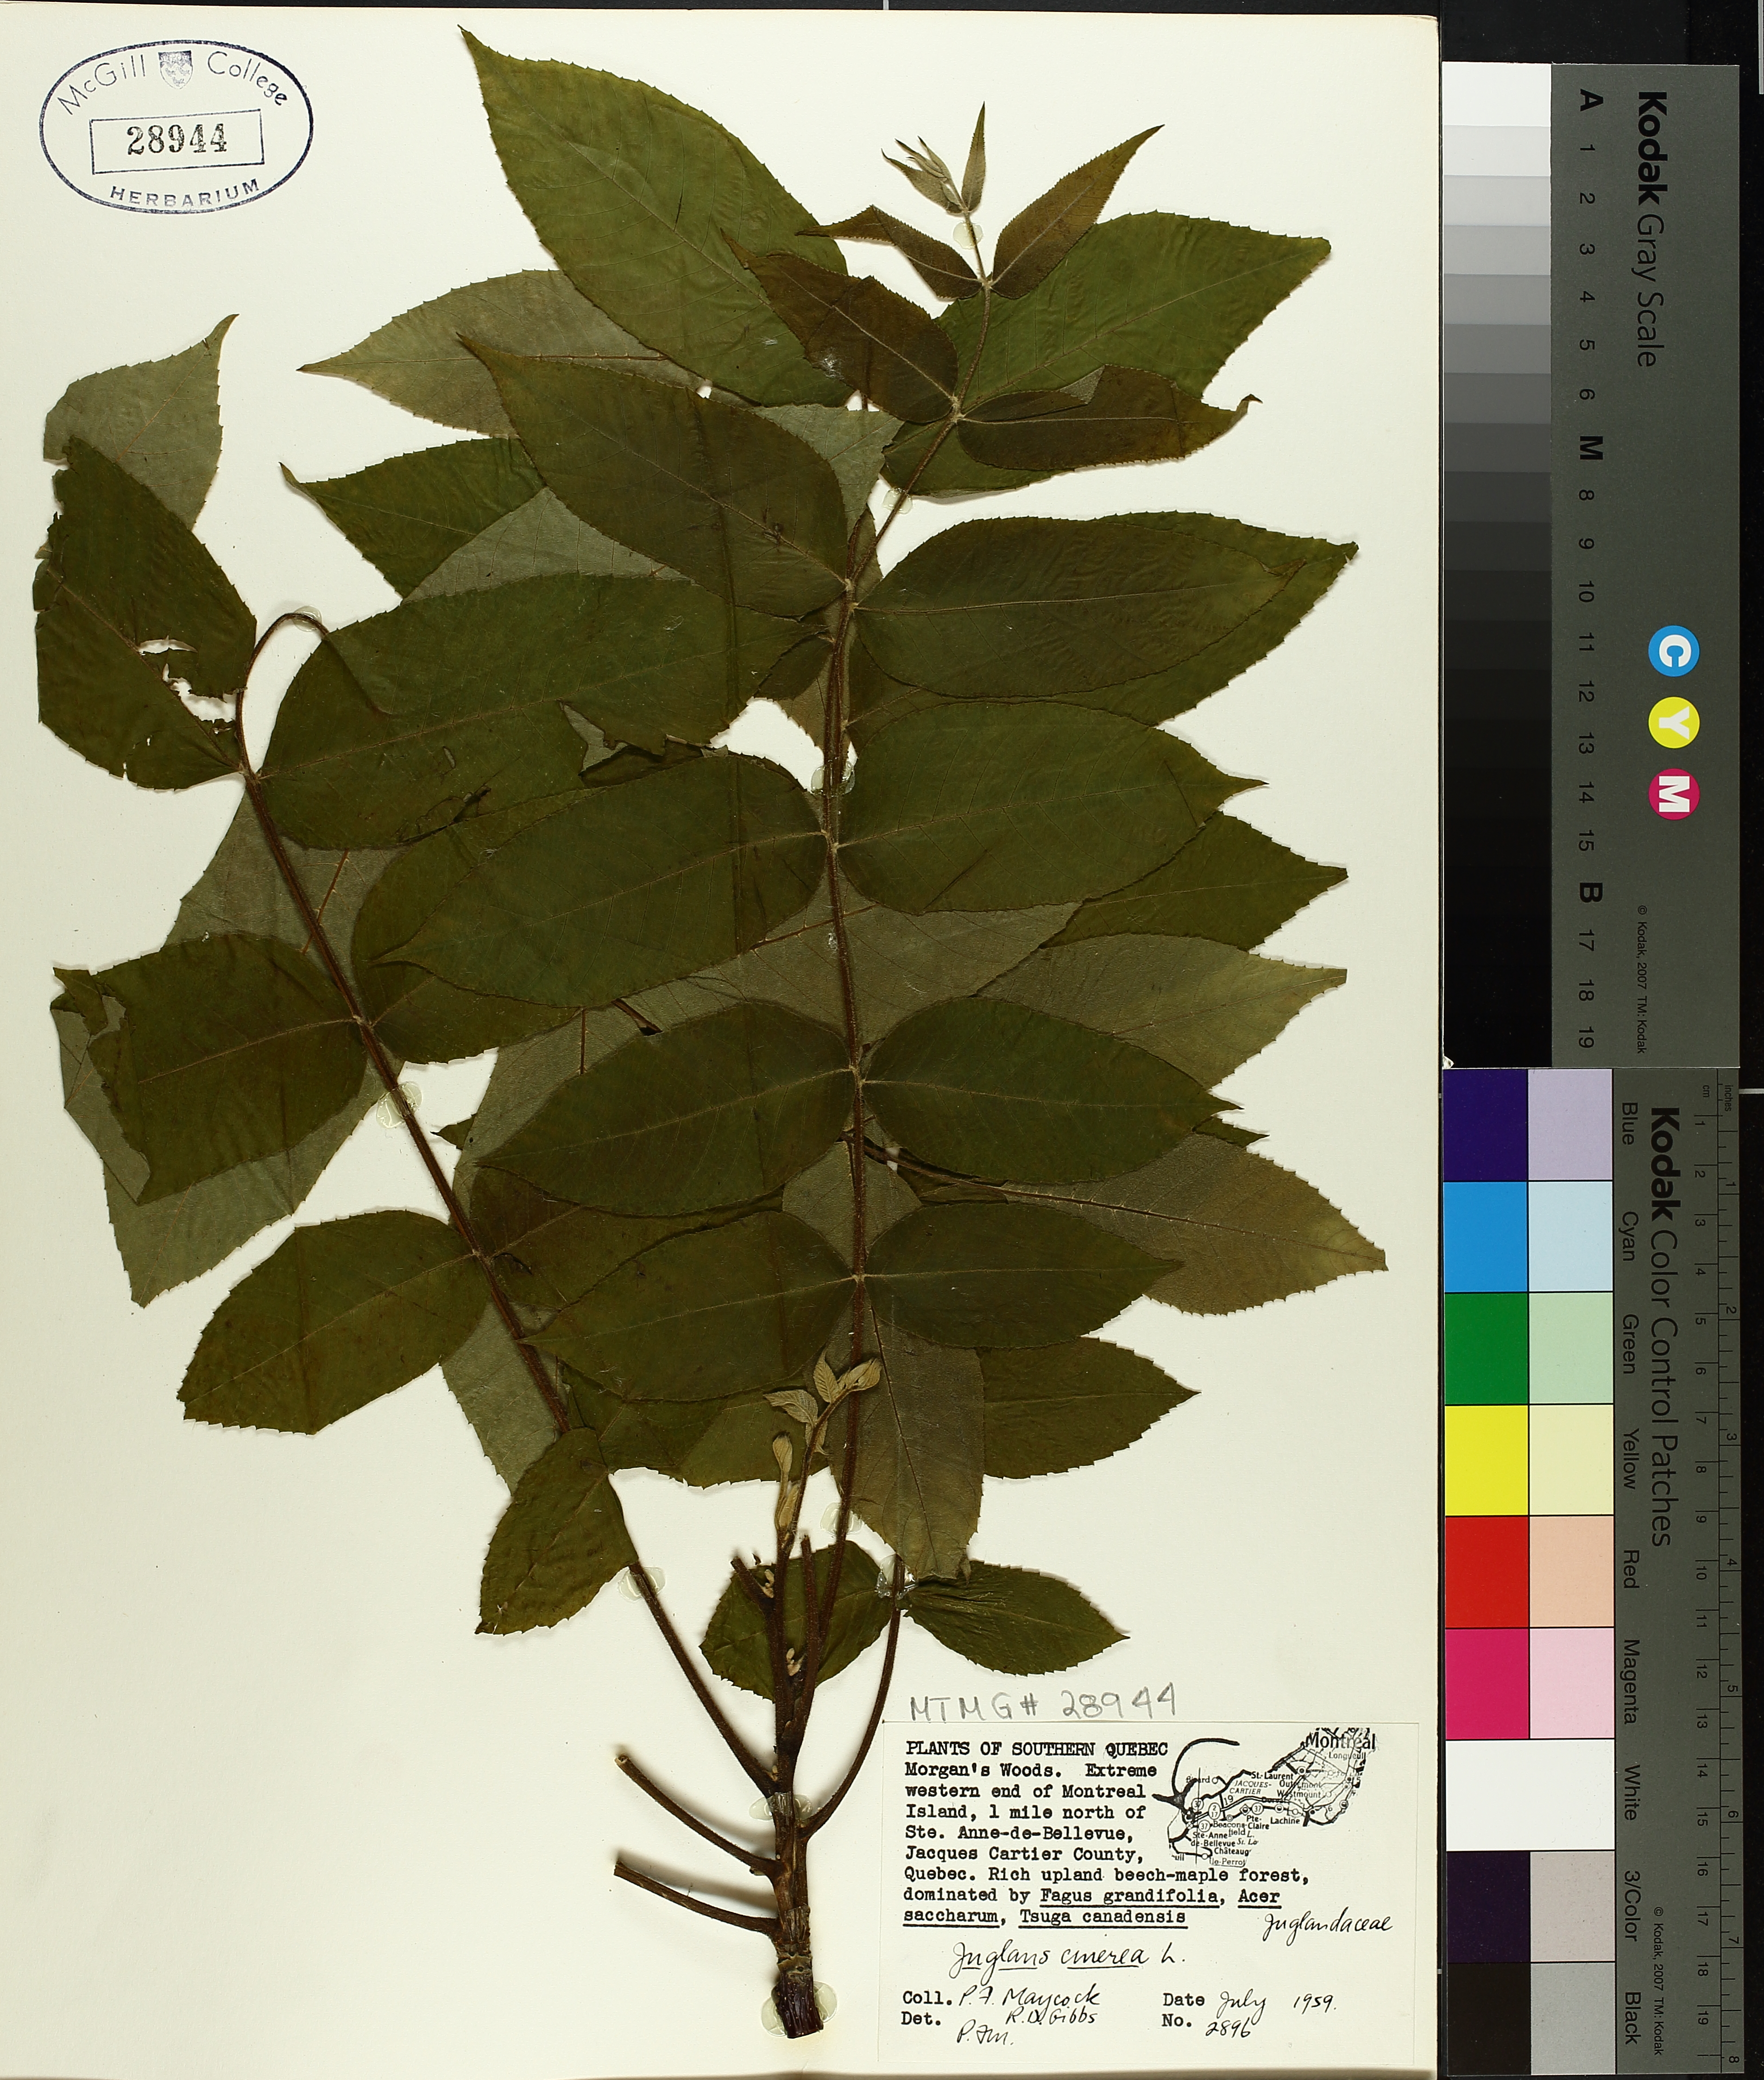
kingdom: Plantae
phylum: Tracheophyta
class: Magnoliopsida
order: Fagales
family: Juglandaceae
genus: Juglans
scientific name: Juglans cinerea
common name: Butternut
